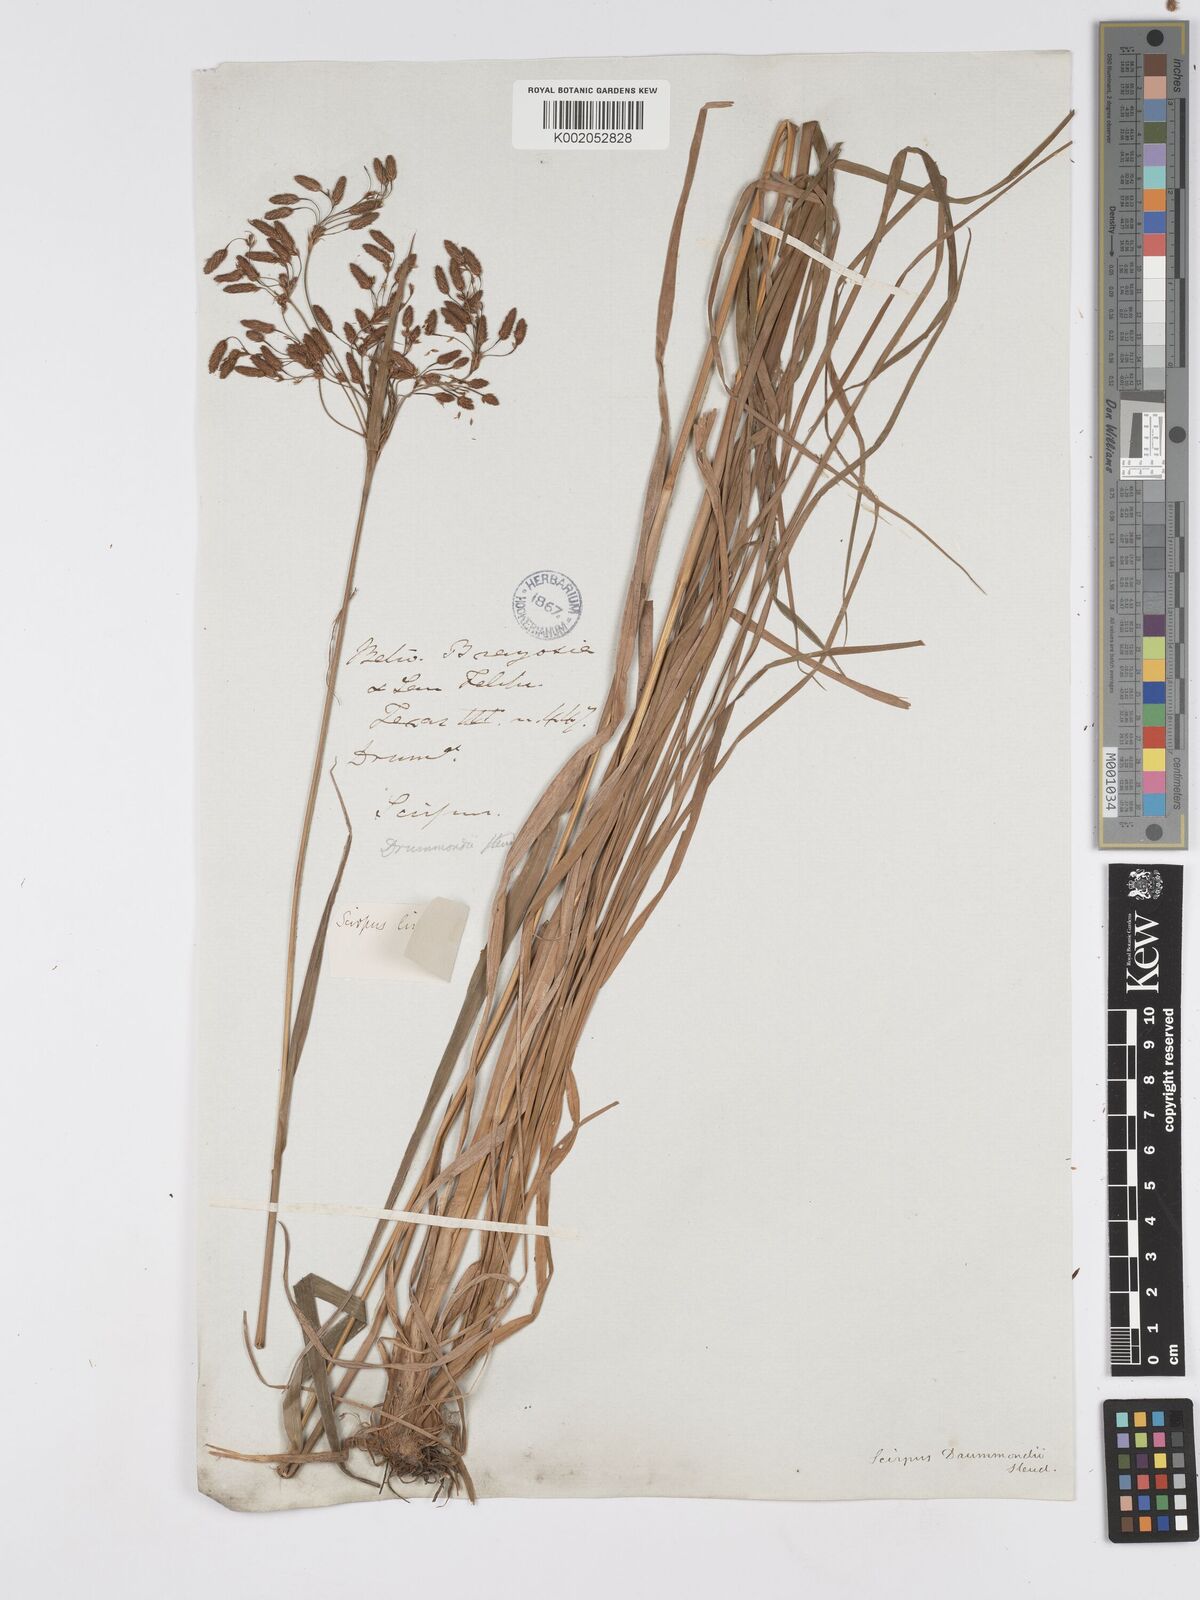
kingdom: Plantae
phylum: Tracheophyta
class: Liliopsida
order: Poales
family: Cyperaceae
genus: Scirpus
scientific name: Scirpus lineatus
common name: Drooping bulrush
